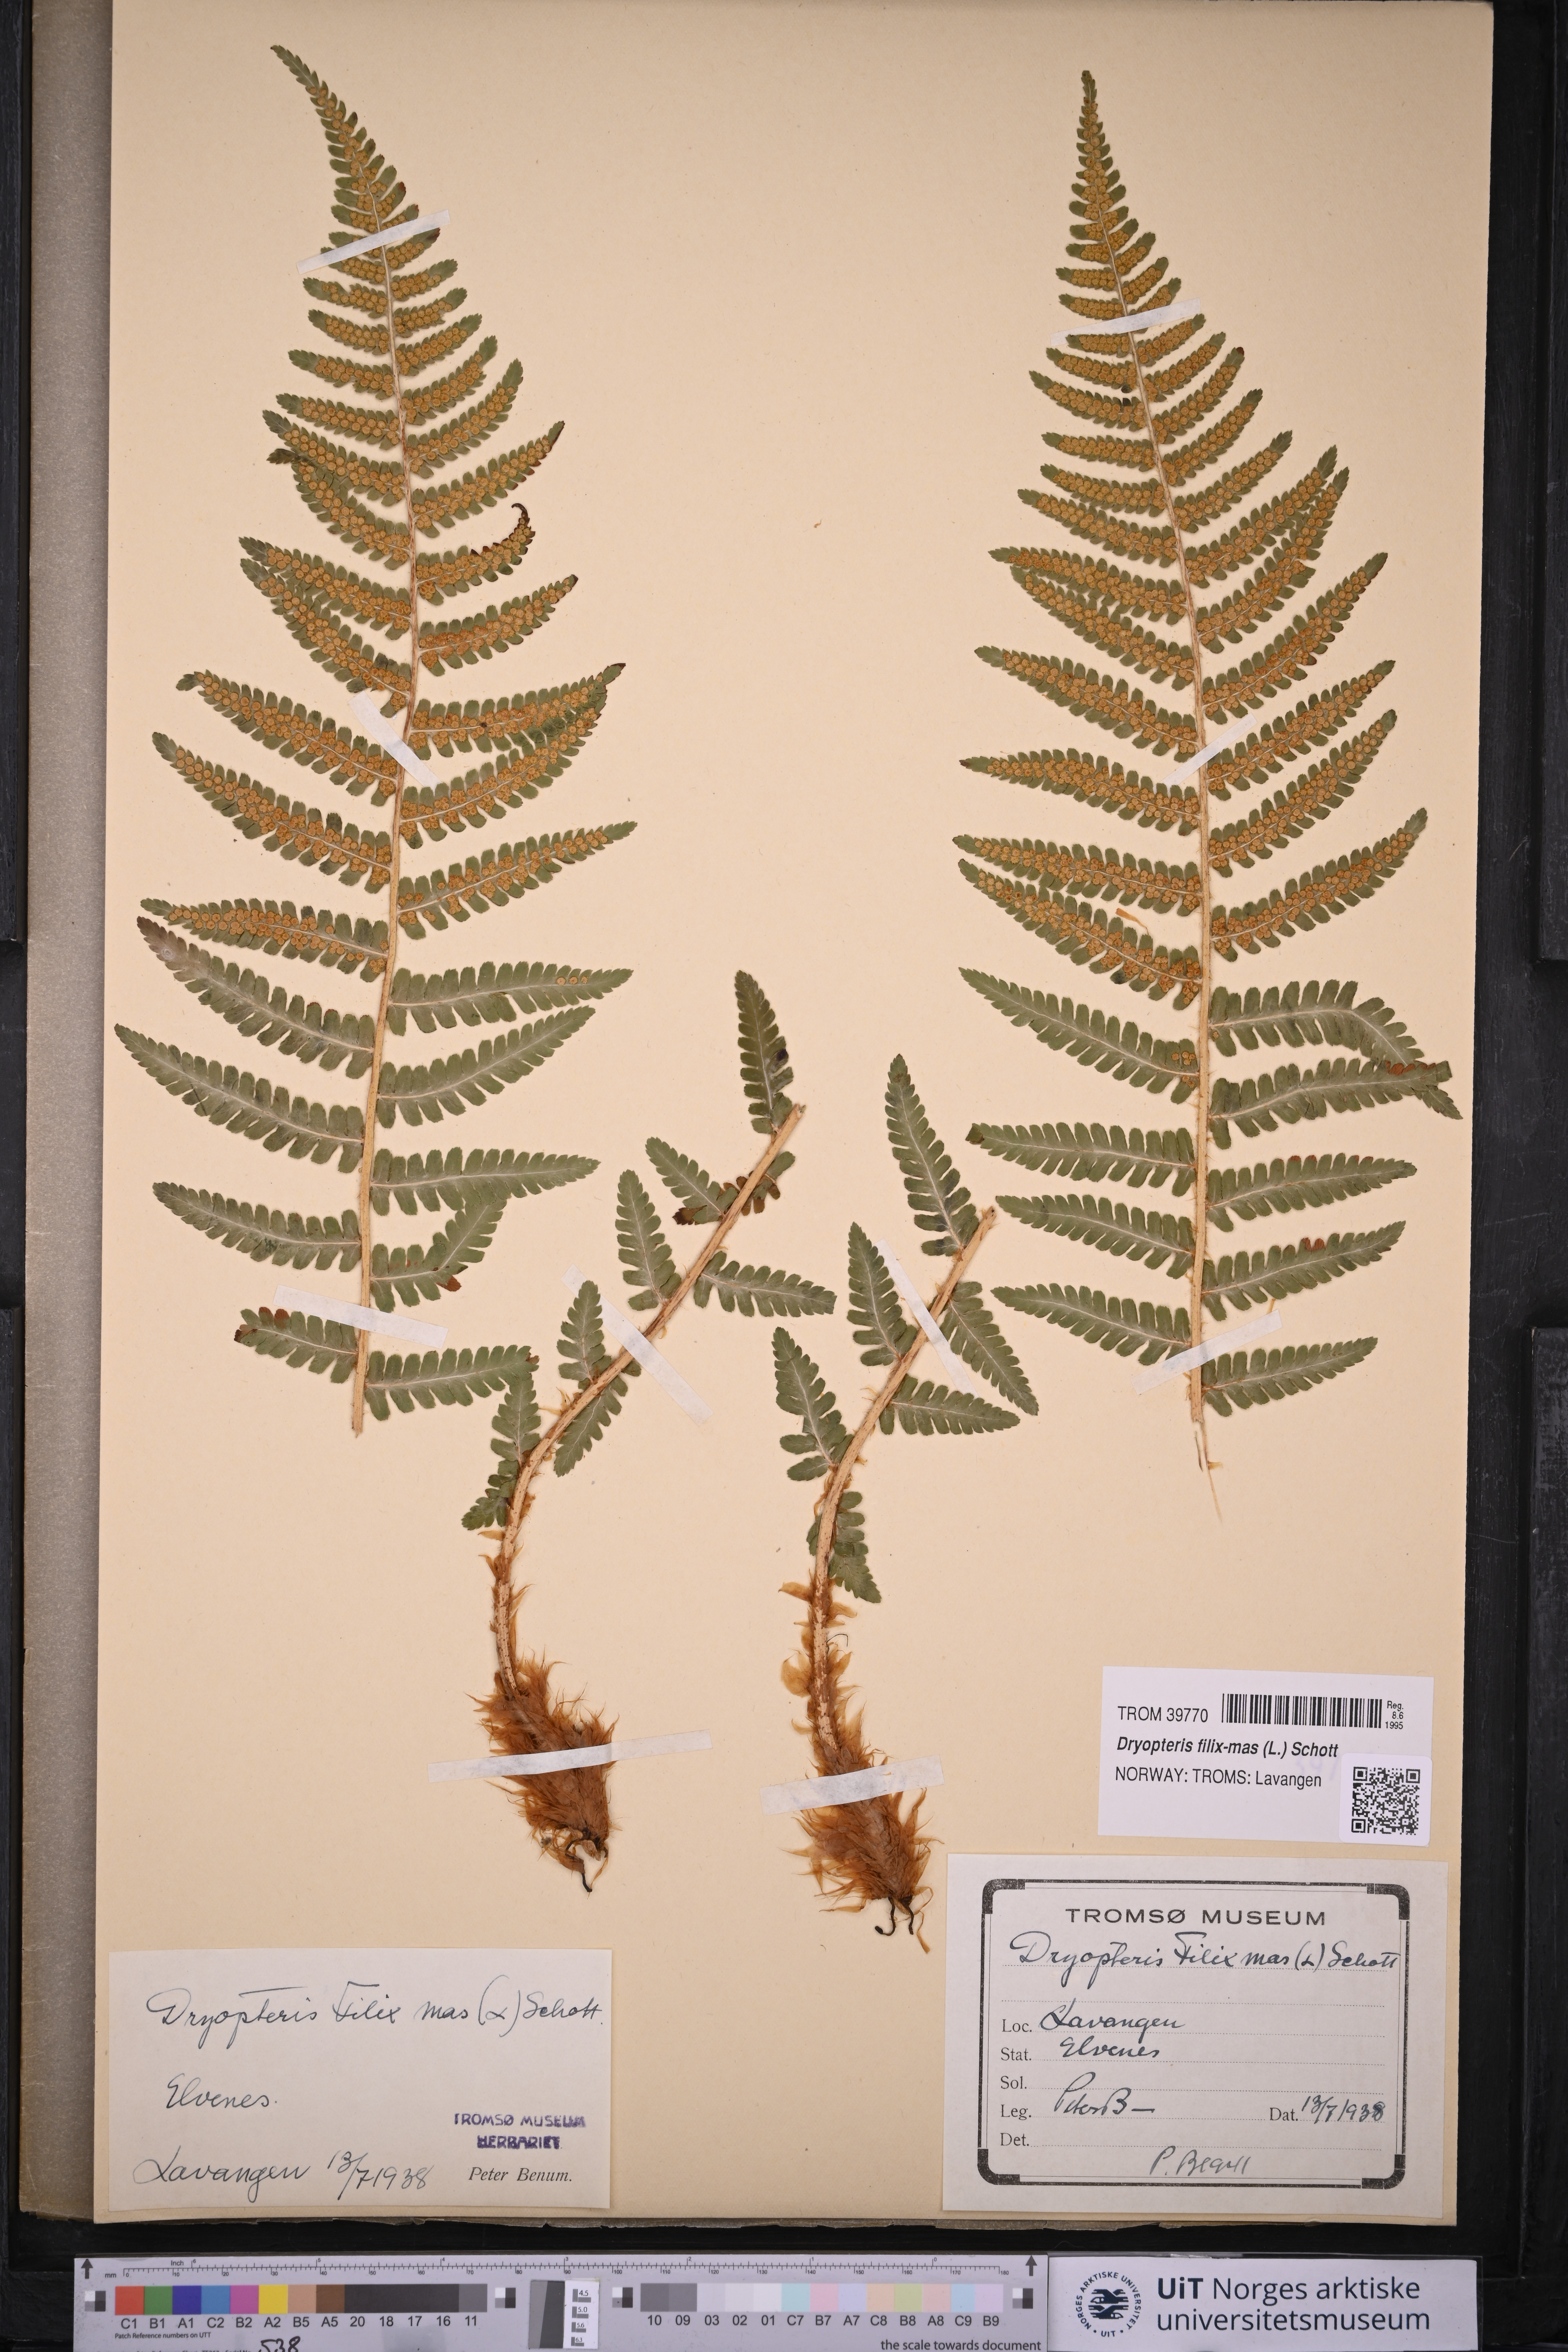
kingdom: Plantae
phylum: Tracheophyta
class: Polypodiopsida
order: Polypodiales
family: Dryopteridaceae
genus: Dryopteris
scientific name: Dryopteris filix-mas
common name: Male fern
